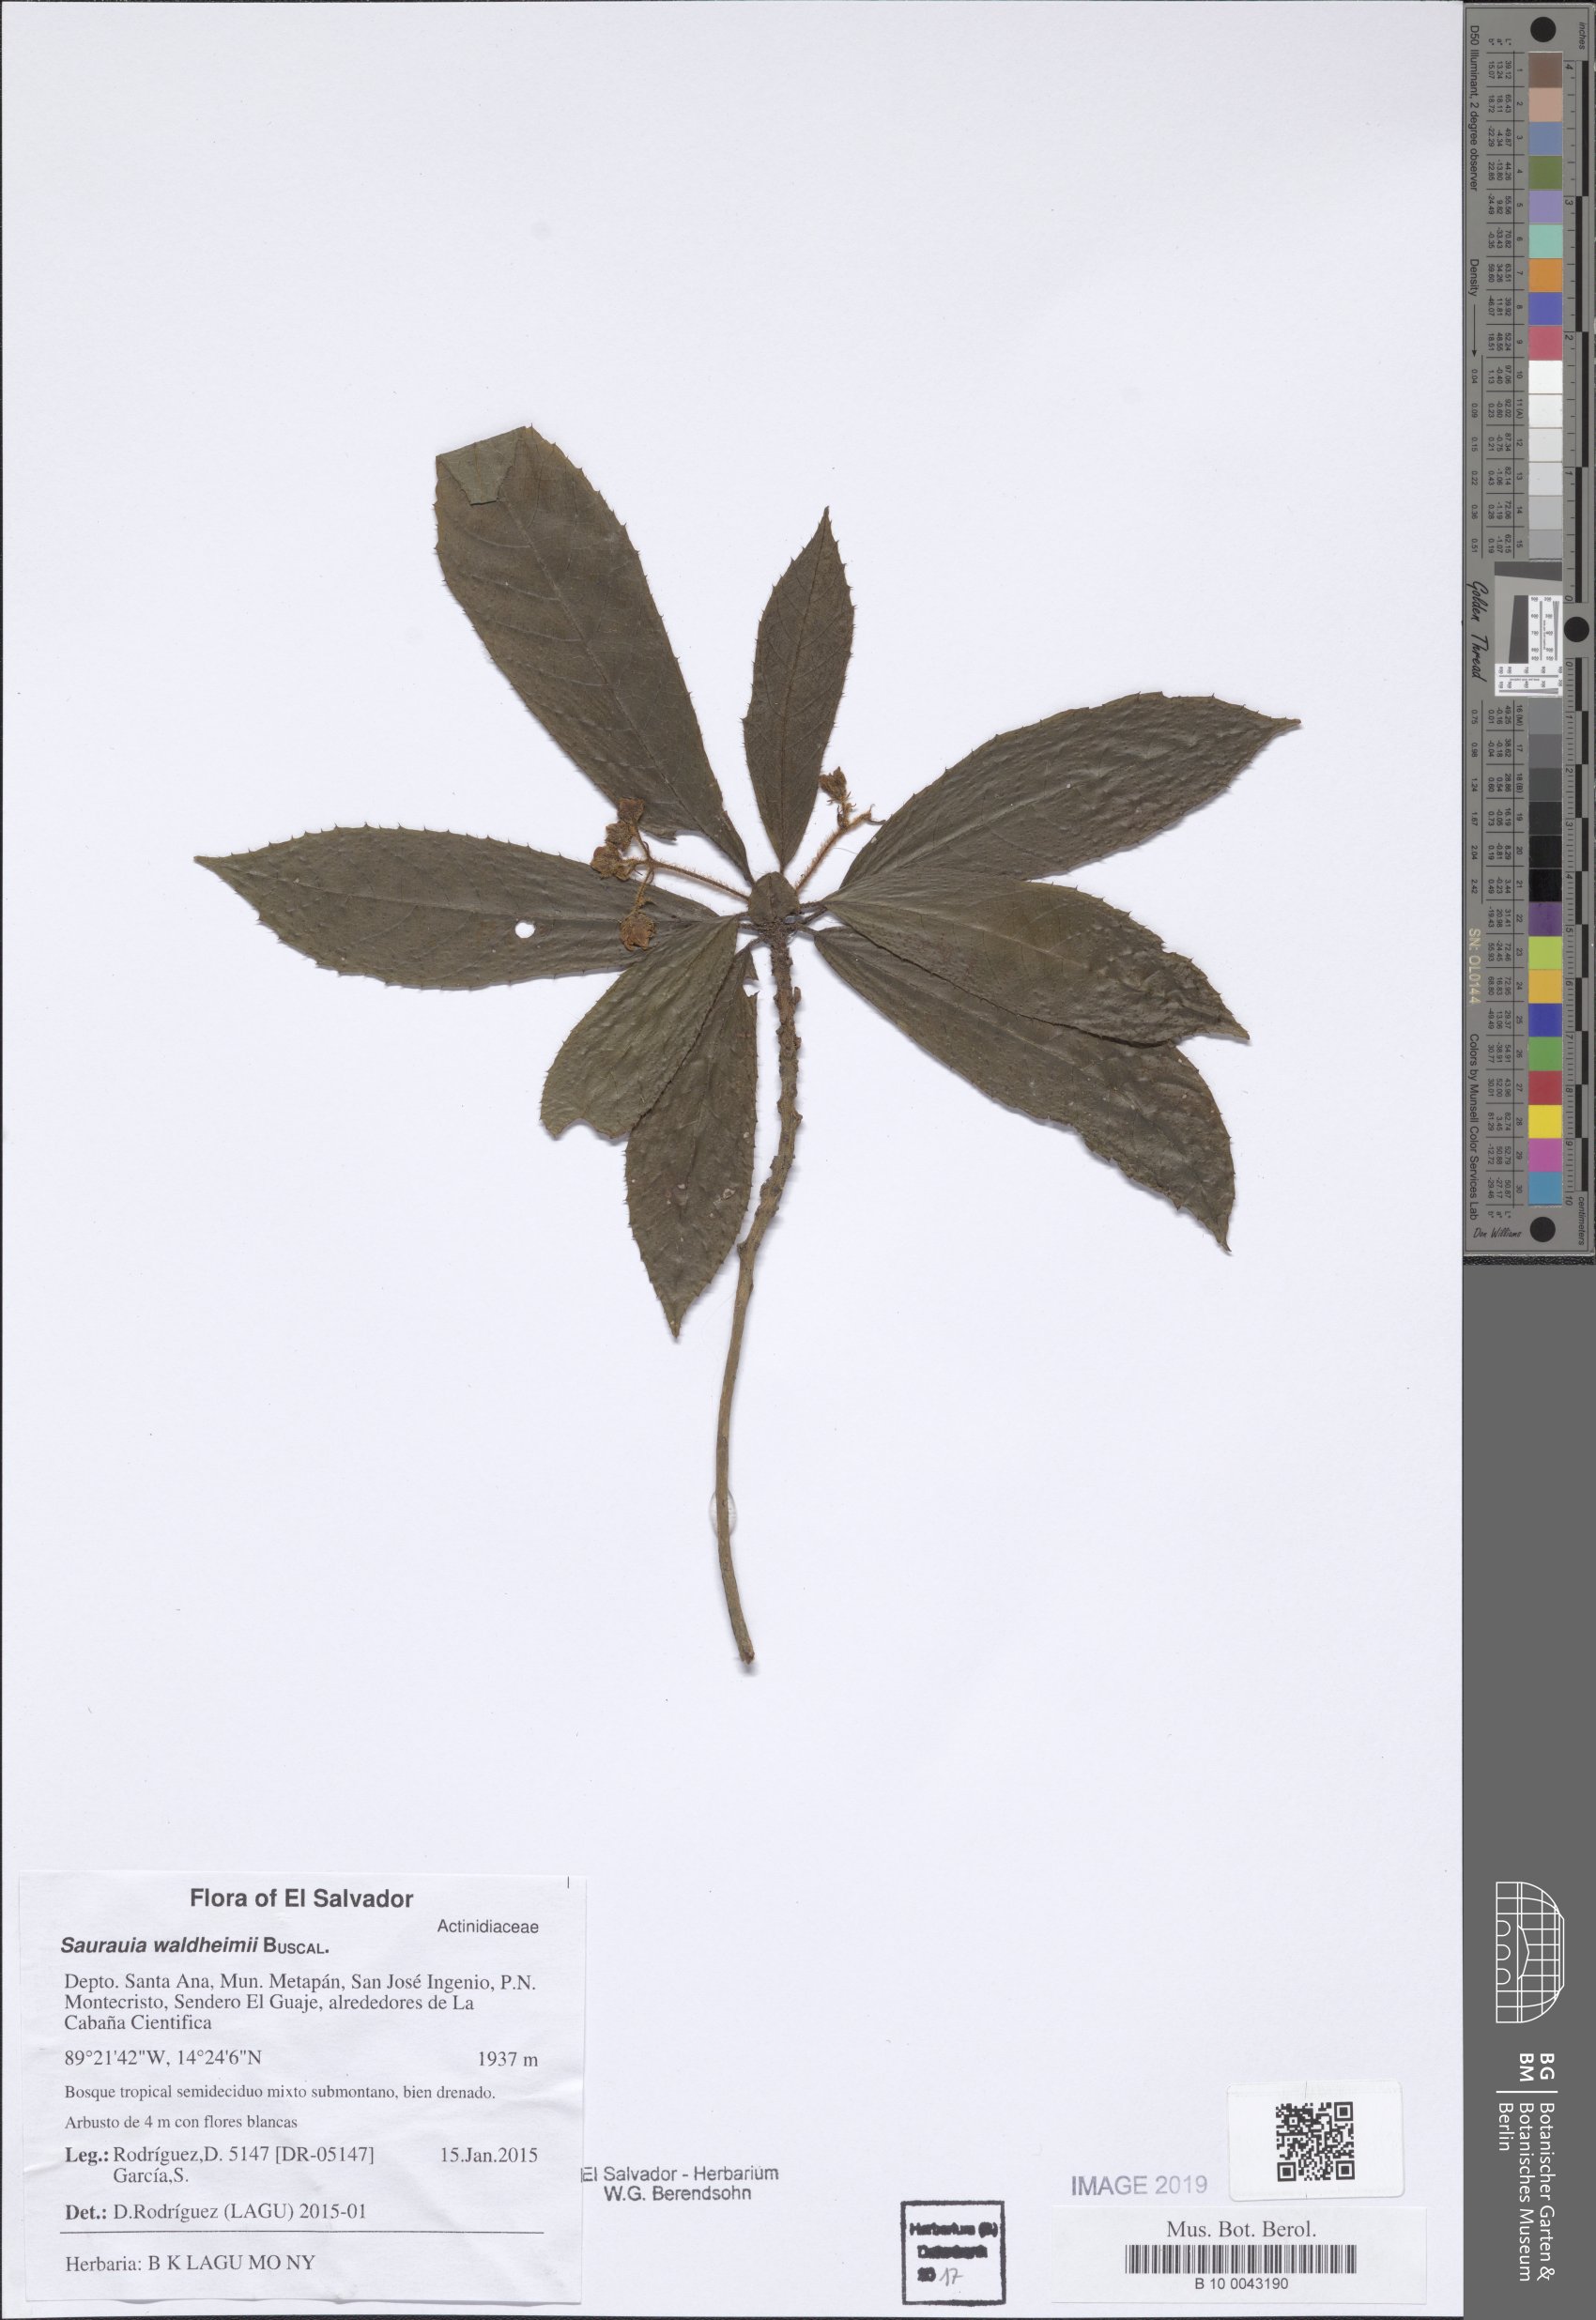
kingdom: Plantae
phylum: Tracheophyta
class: Magnoliopsida
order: Ericales
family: Actinidiaceae
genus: Saurauia
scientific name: Saurauia waldheimii
